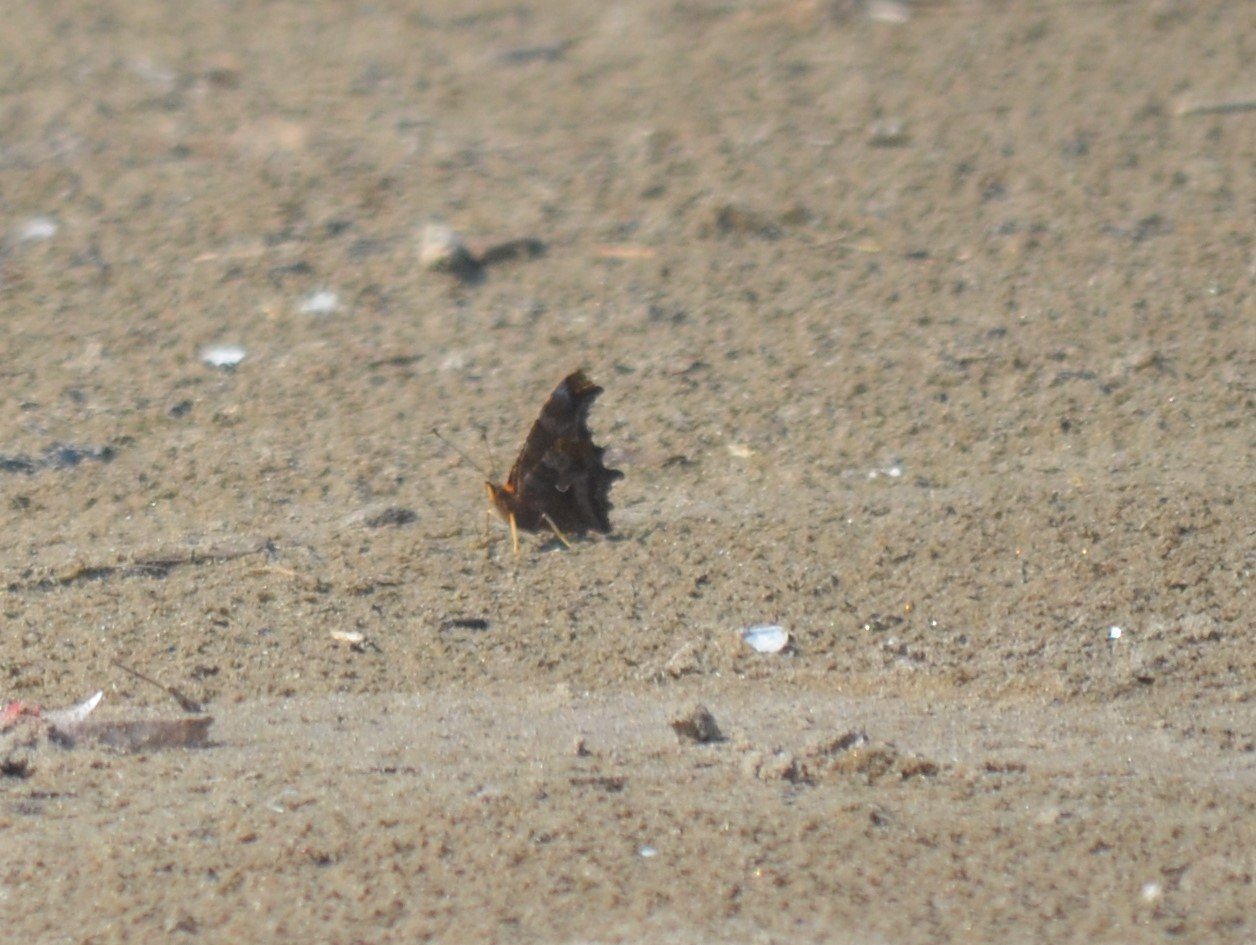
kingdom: Animalia
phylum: Arthropoda
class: Insecta
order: Lepidoptera
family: Nymphalidae
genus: Polygonia
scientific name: Polygonia comma
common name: Eastern Comma
